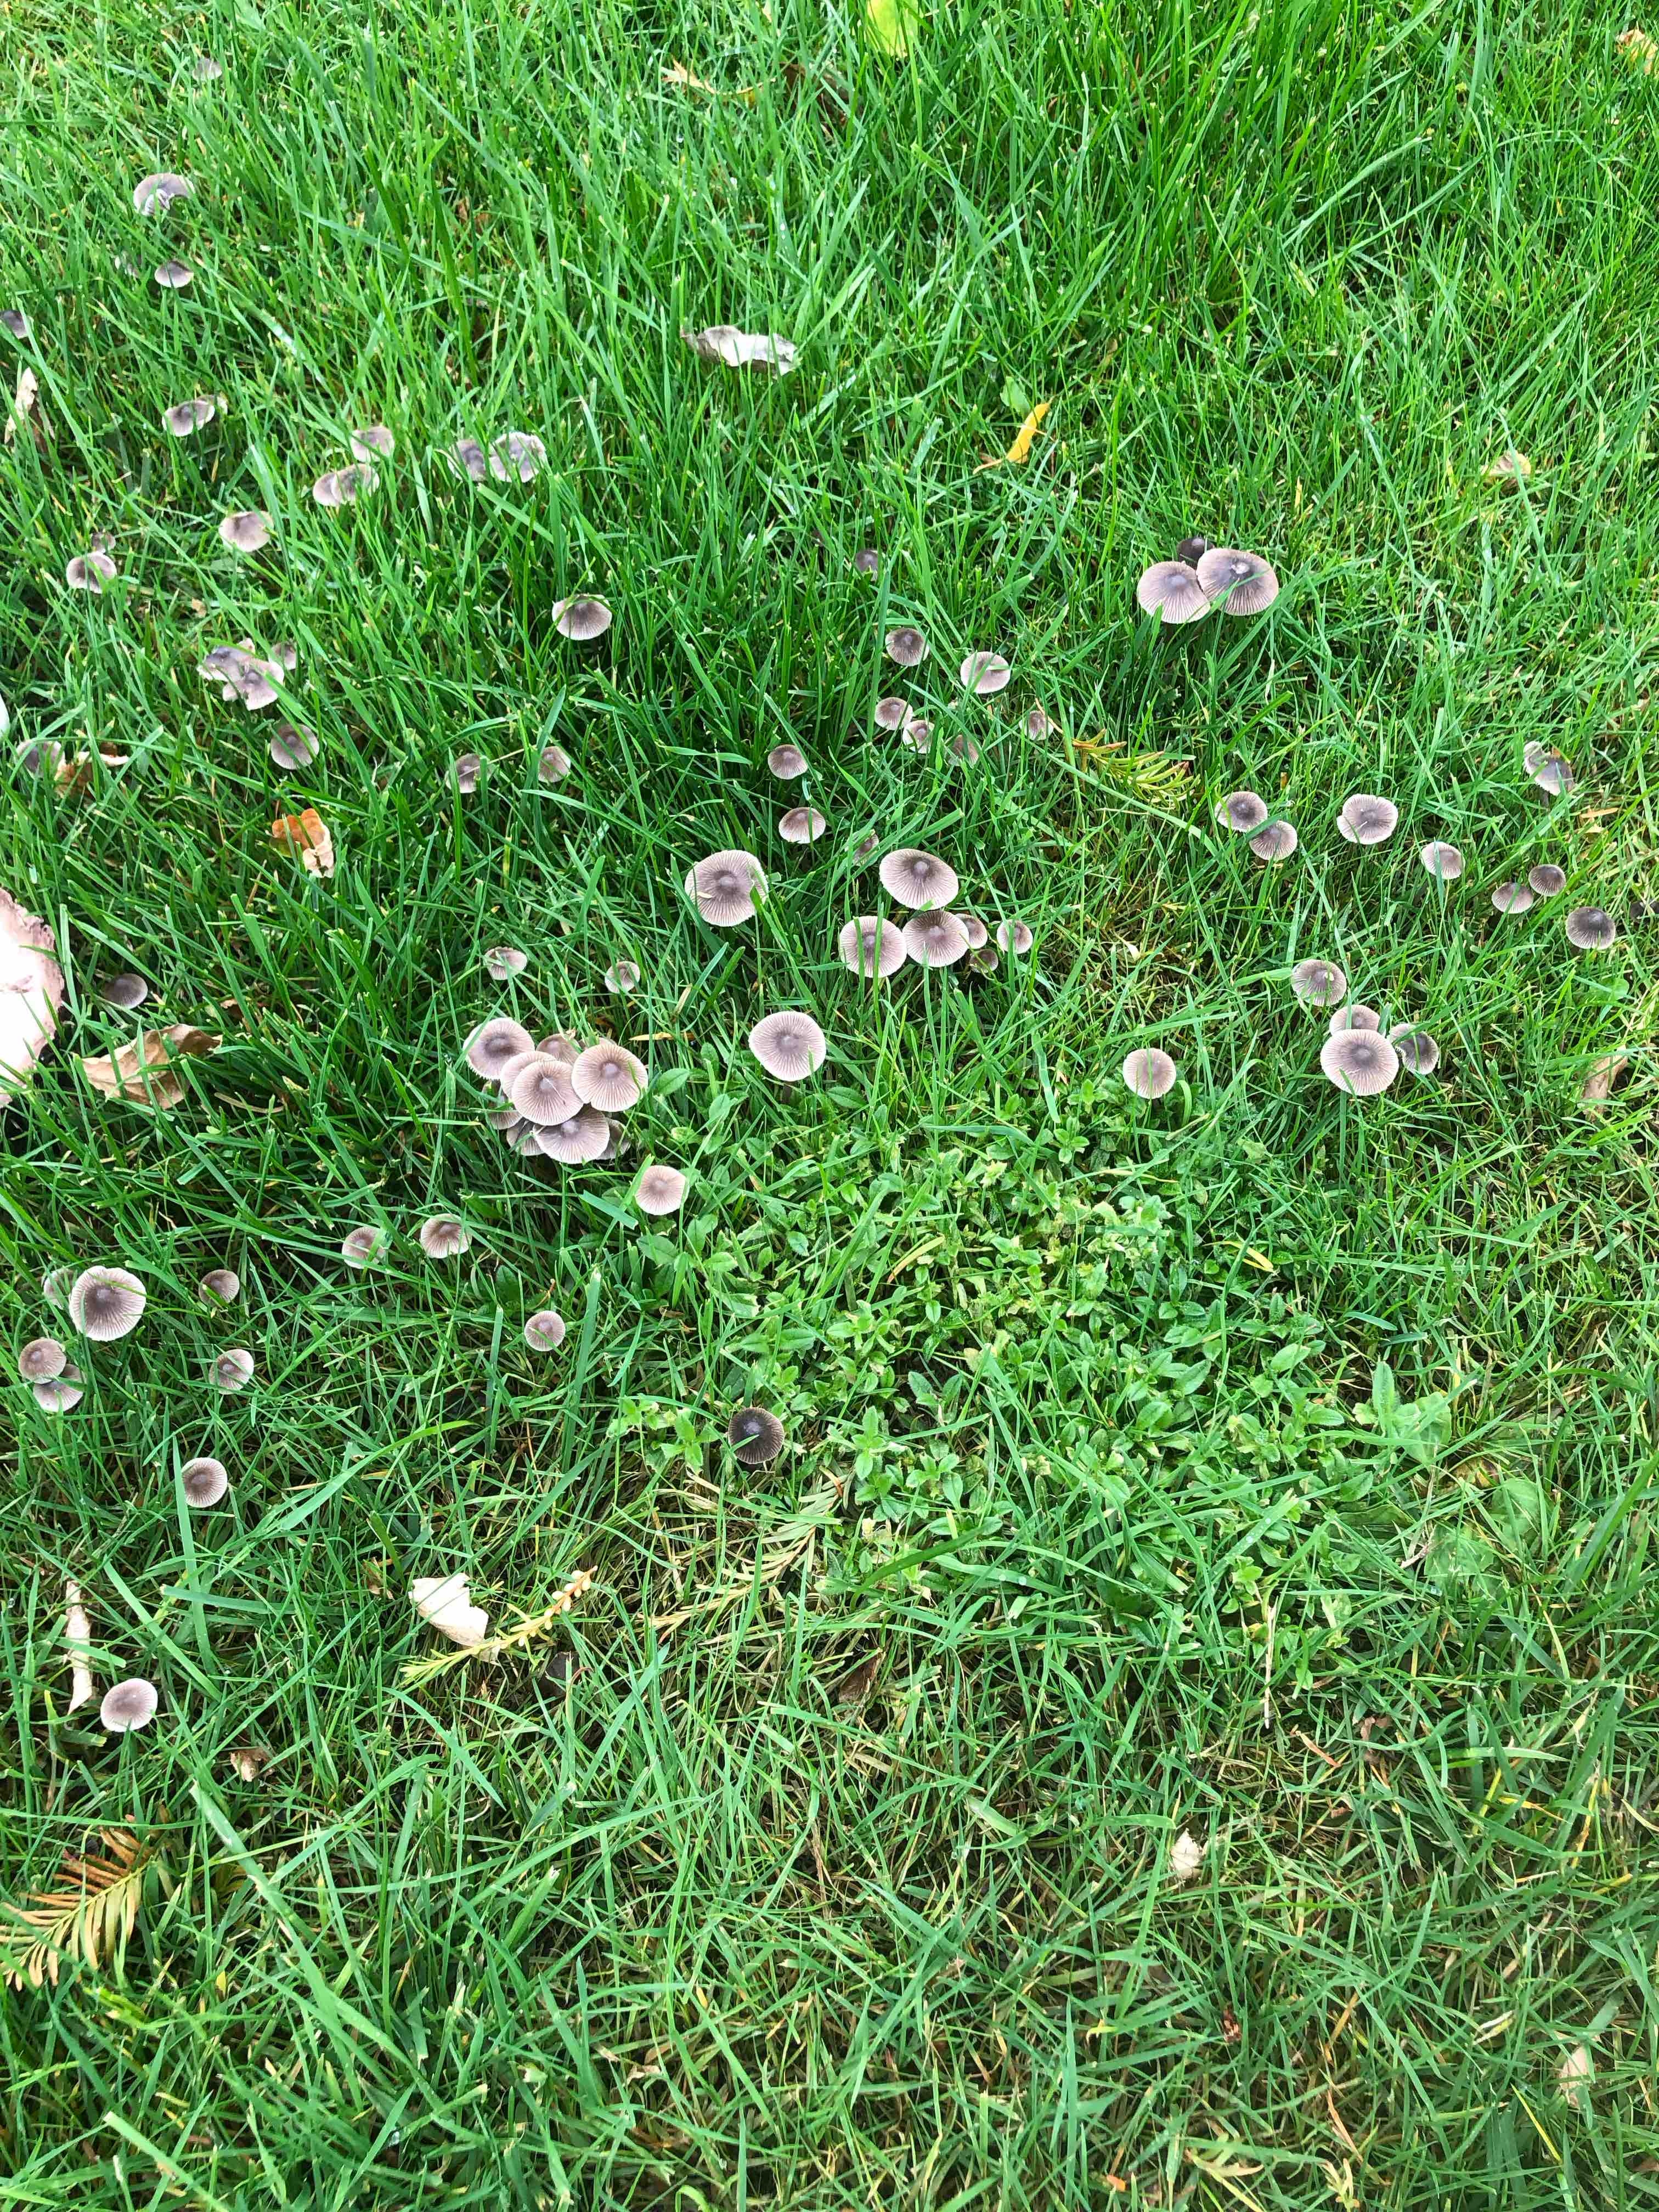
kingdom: Fungi
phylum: Basidiomycota
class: Agaricomycetes
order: Agaricales
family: Mycenaceae
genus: Mycena
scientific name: Mycena
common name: huesvamp
